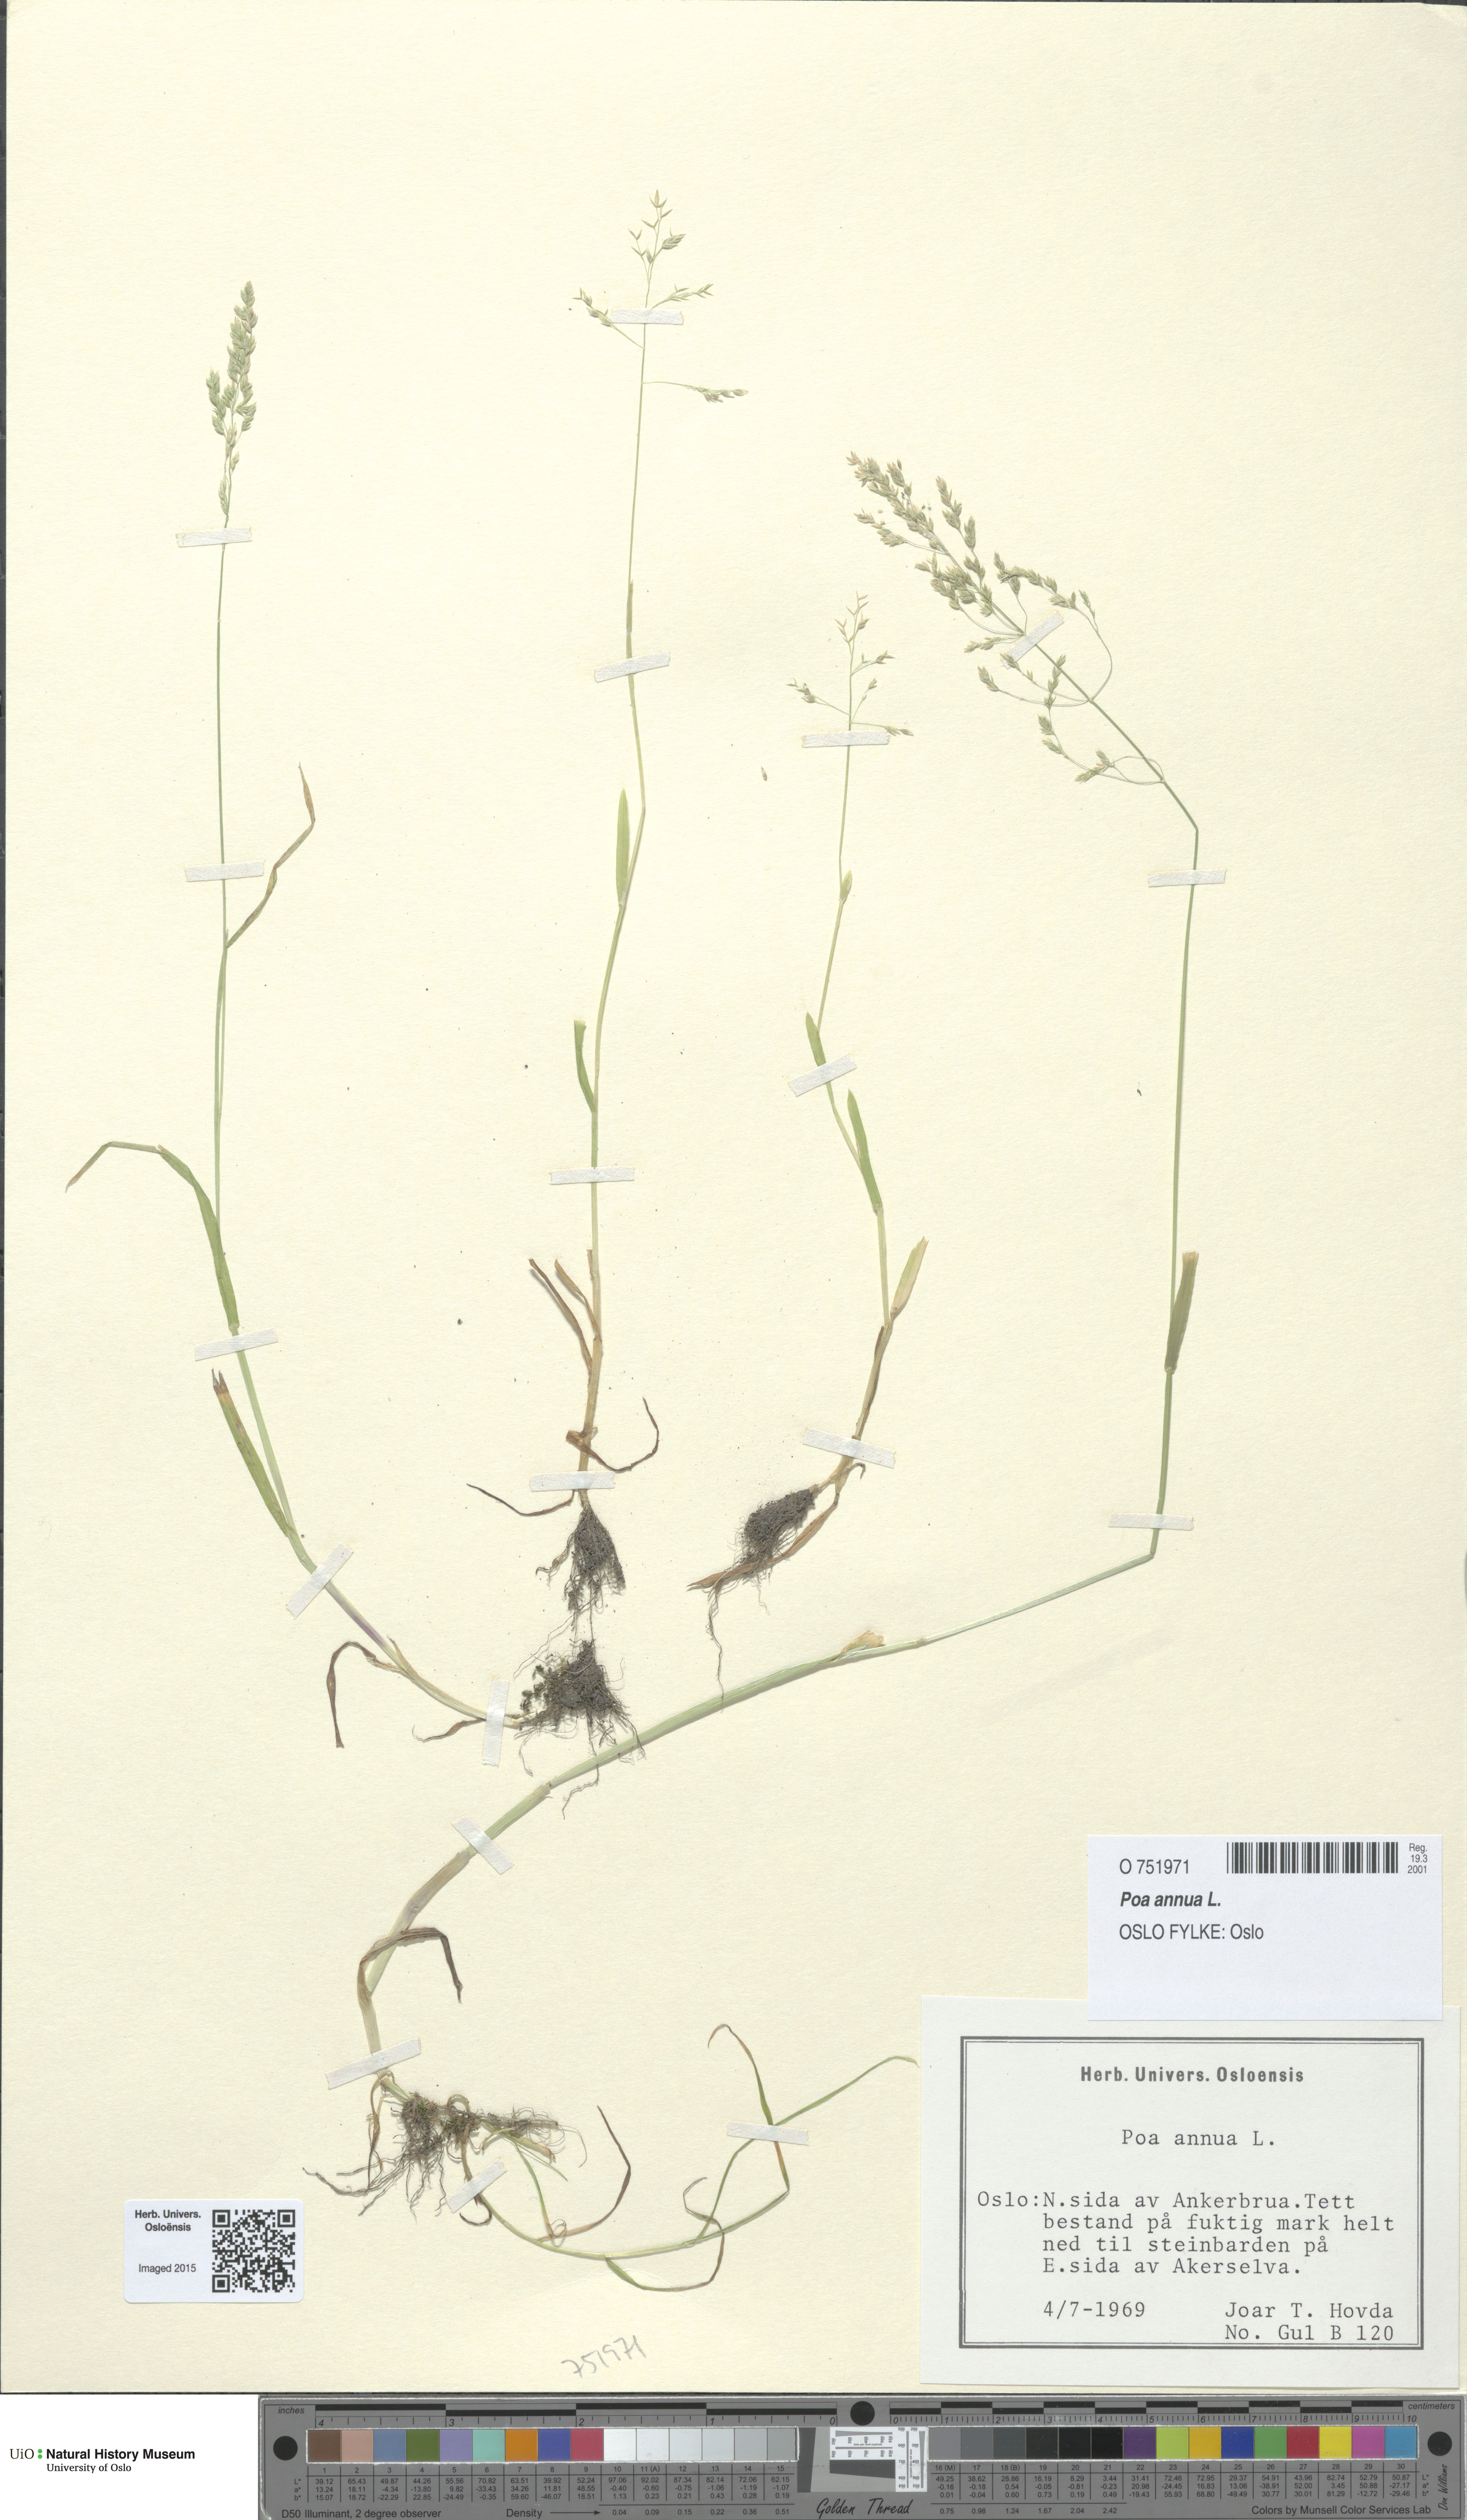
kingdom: Plantae
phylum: Tracheophyta
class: Liliopsida
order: Poales
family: Poaceae
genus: Poa
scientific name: Poa annua
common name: Annual bluegrass
